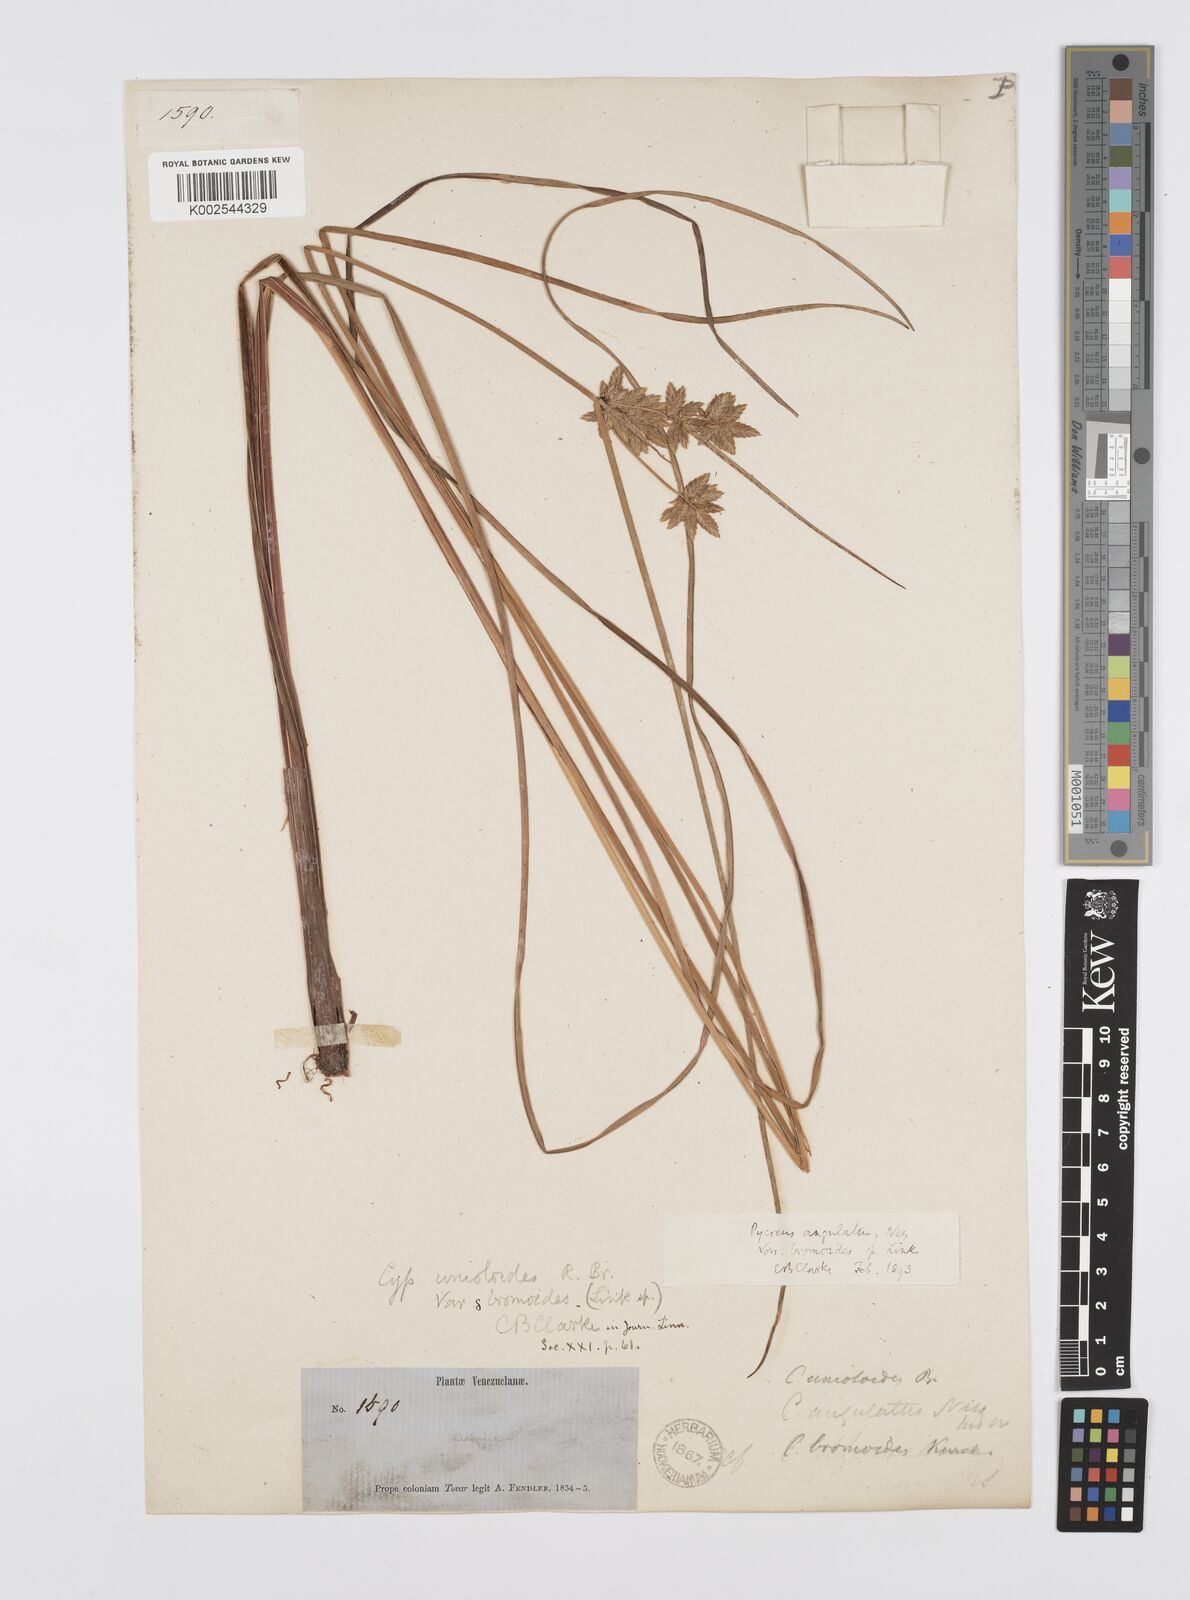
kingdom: Plantae
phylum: Tracheophyta
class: Liliopsida
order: Poales
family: Cyperaceae
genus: Cyperus
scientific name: Cyperus unioloides
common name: Uniola flatsedge
